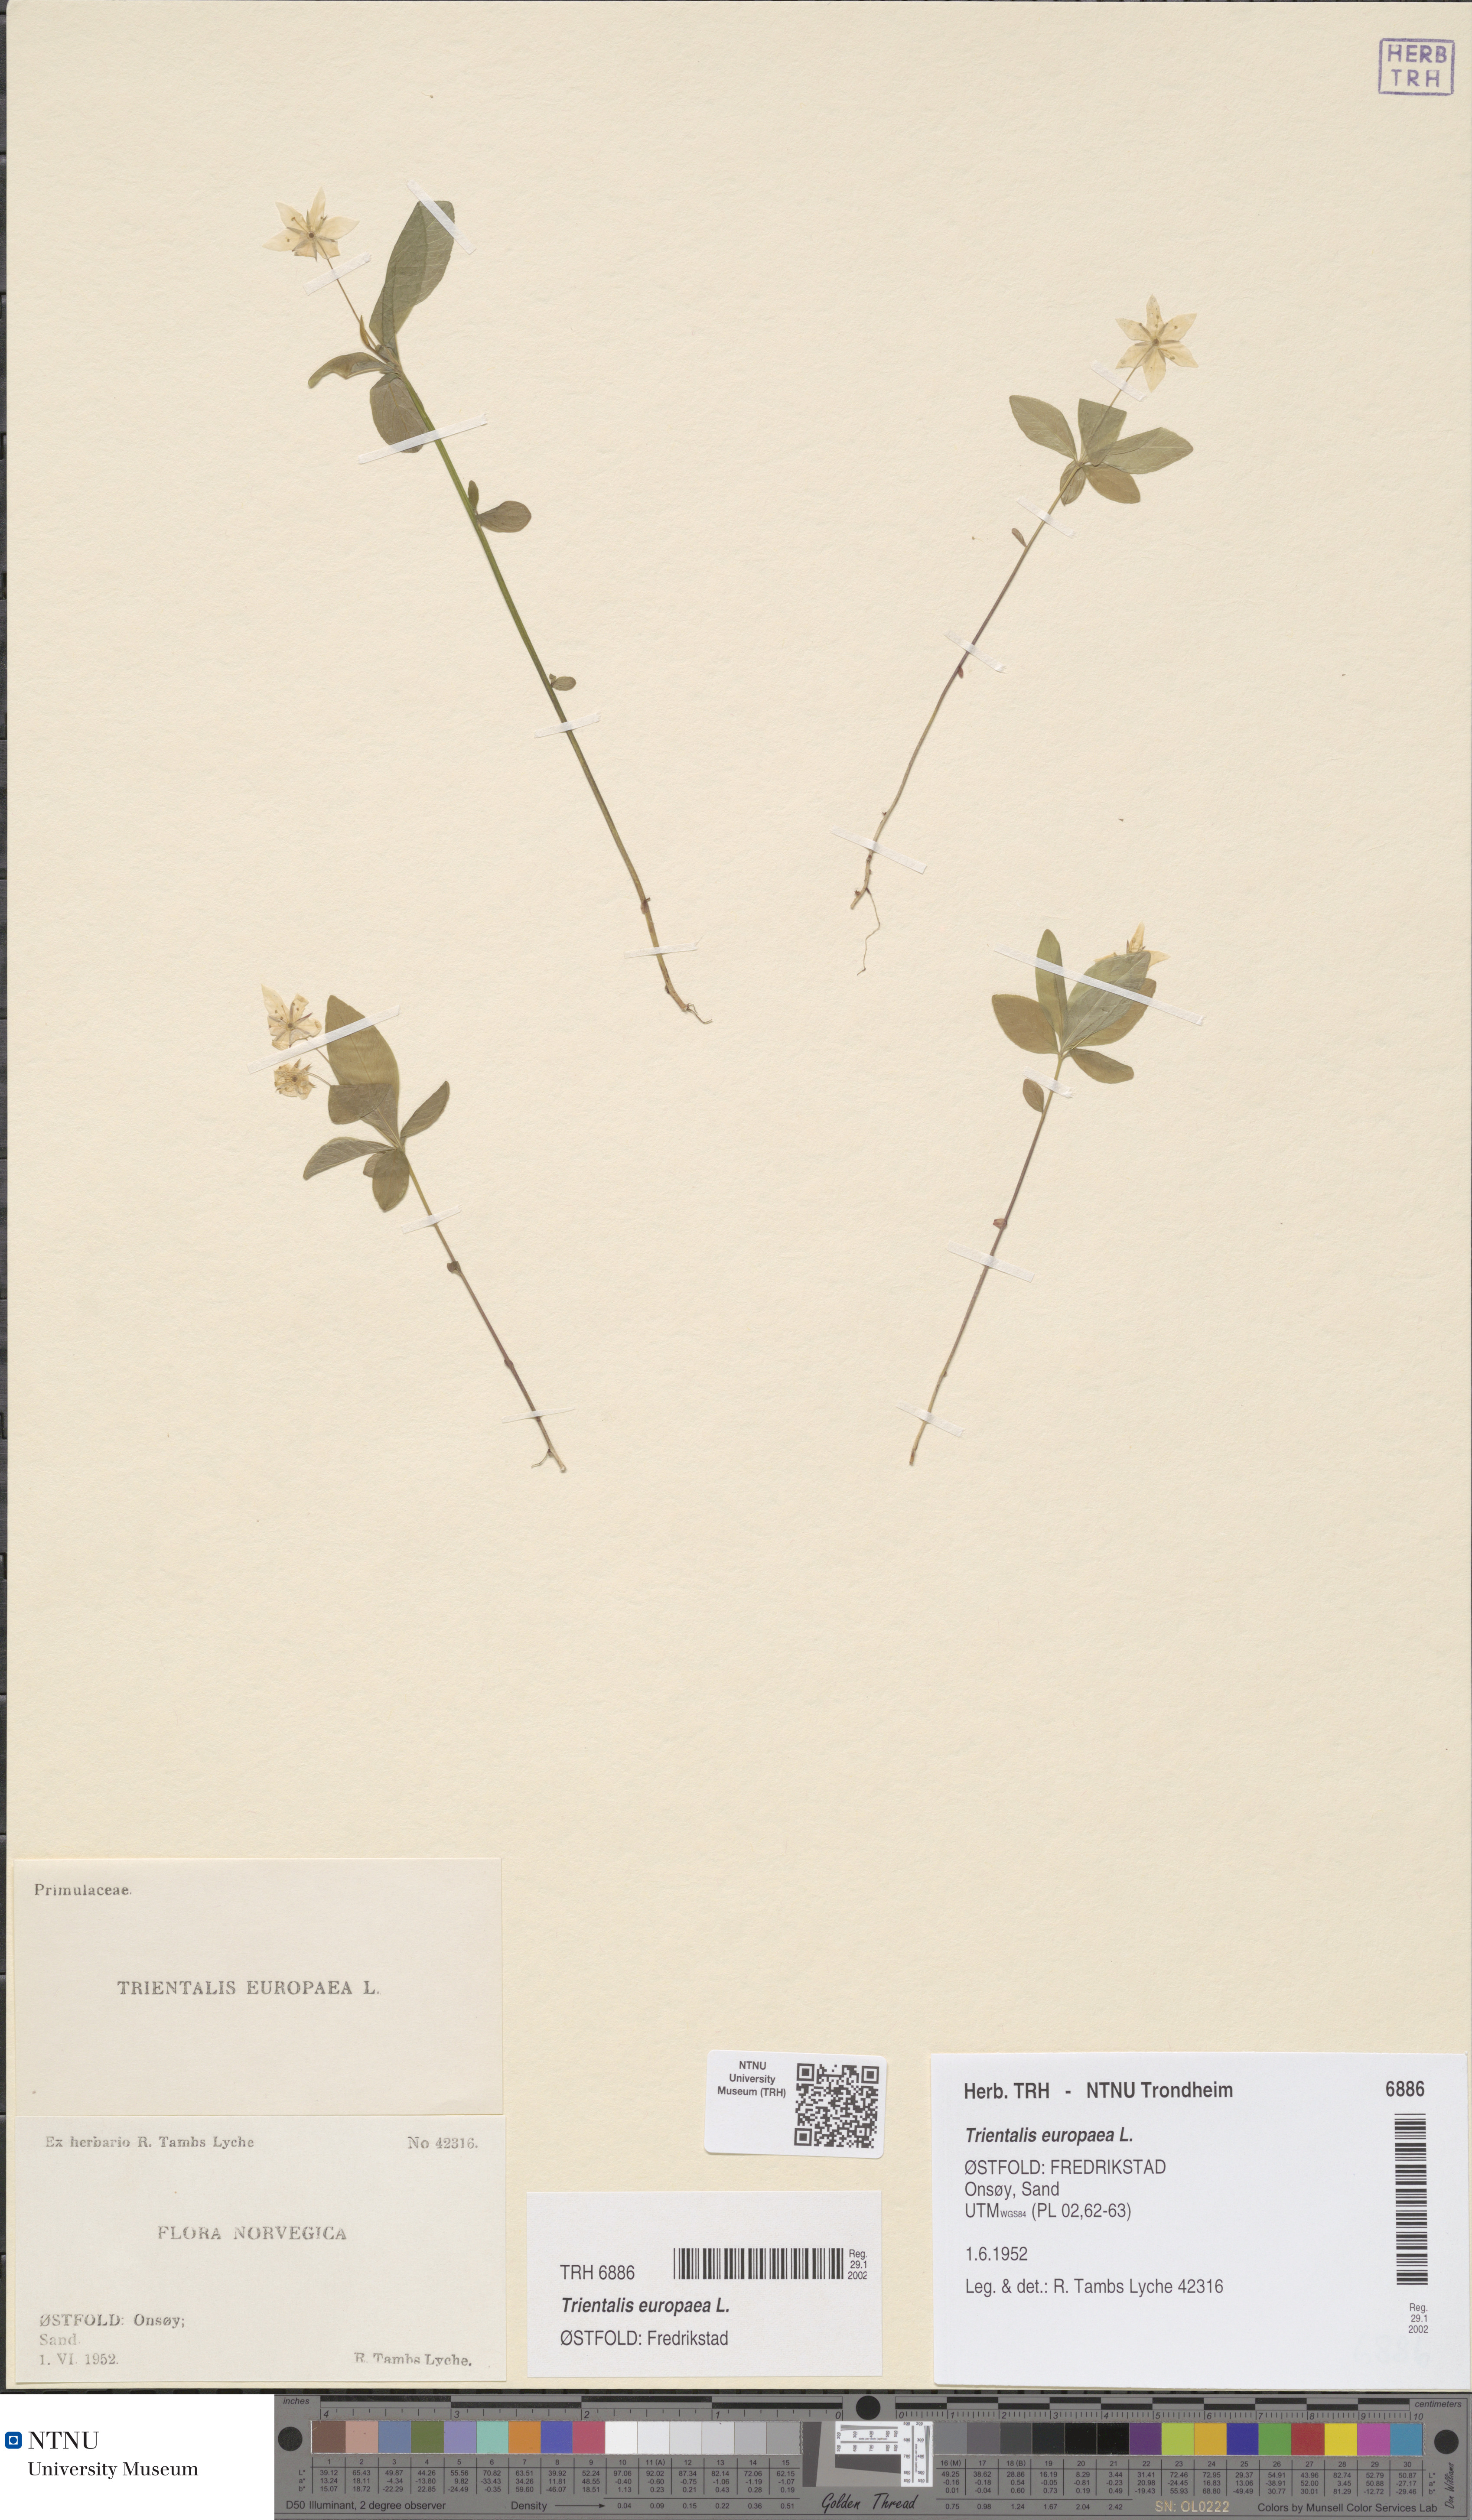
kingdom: Plantae
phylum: Tracheophyta
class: Magnoliopsida
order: Ericales
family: Primulaceae
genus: Lysimachia
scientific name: Lysimachia europaea
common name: Arctic starflower
